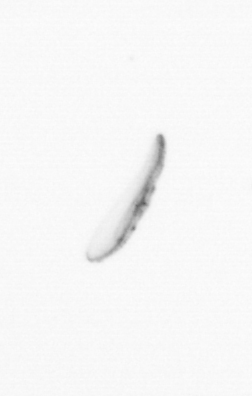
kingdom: Chromista
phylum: Ochrophyta
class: Bacillariophyceae
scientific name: Bacillariophyceae
